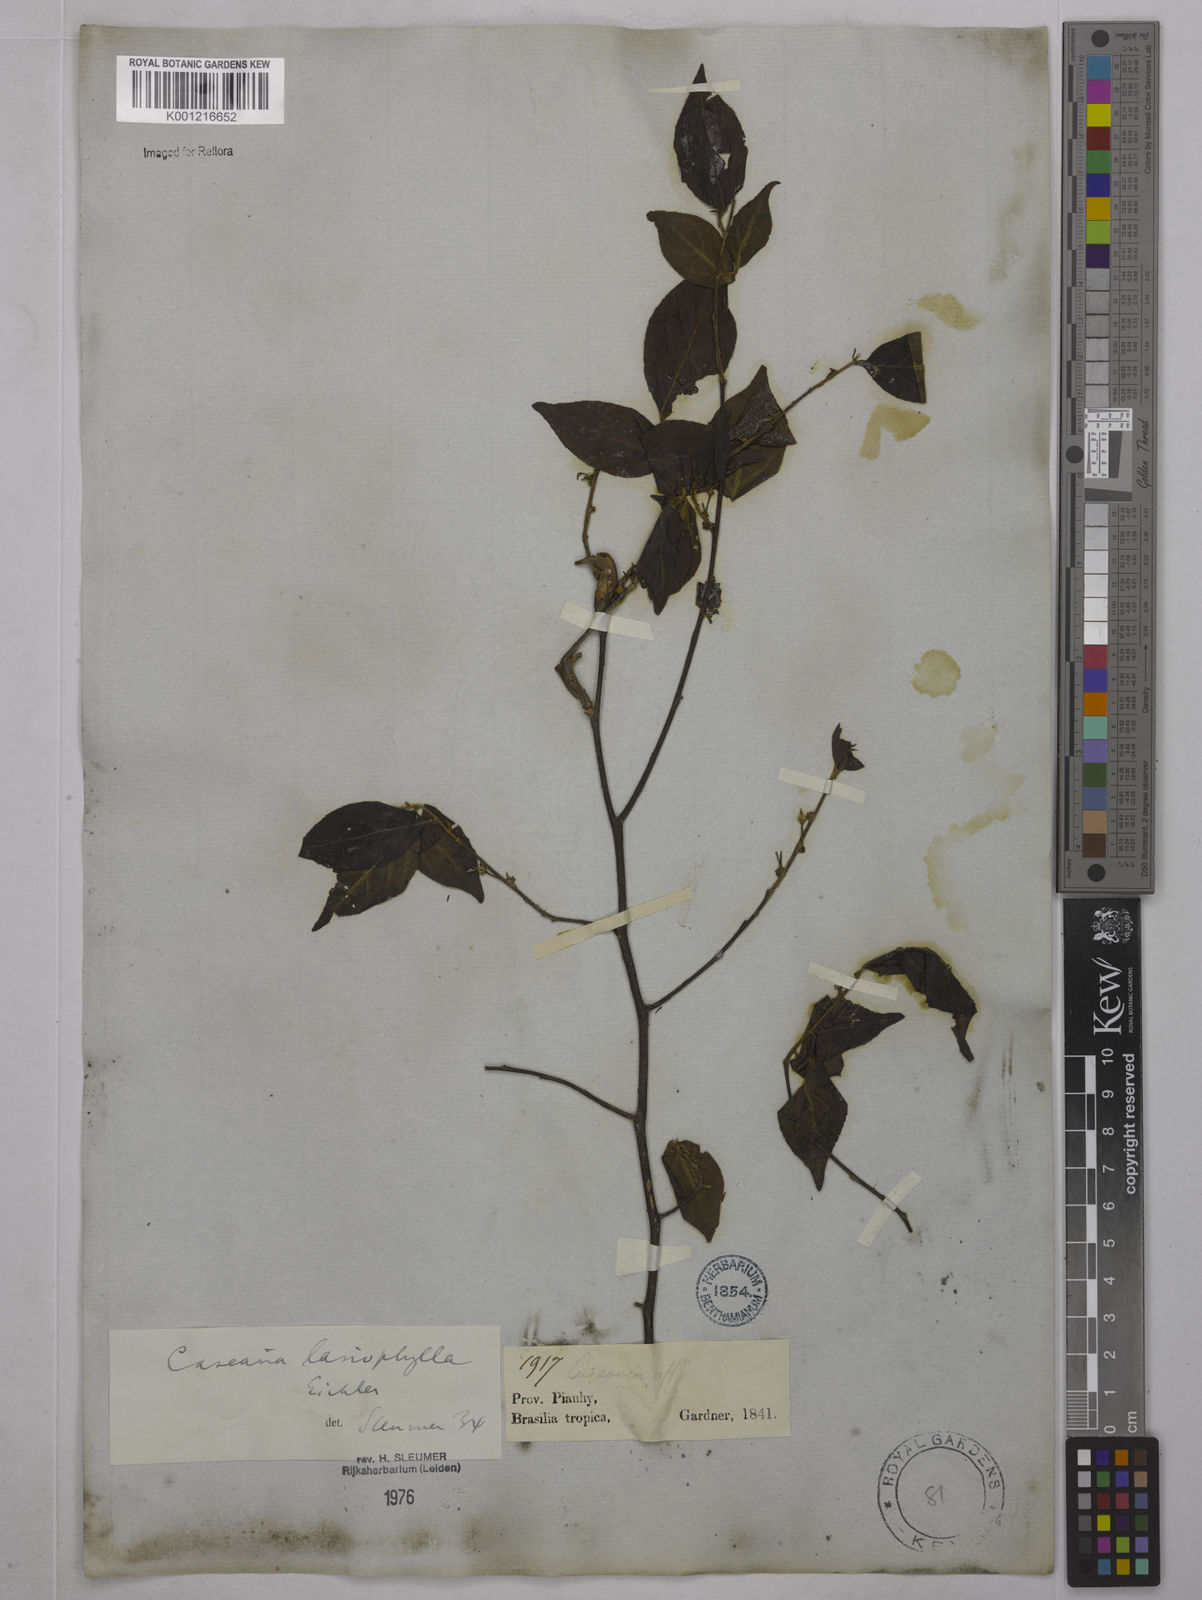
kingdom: Plantae
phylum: Tracheophyta
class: Magnoliopsida
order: Malpighiales
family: Salicaceae
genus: Casearia
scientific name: Casearia lasiophylla
